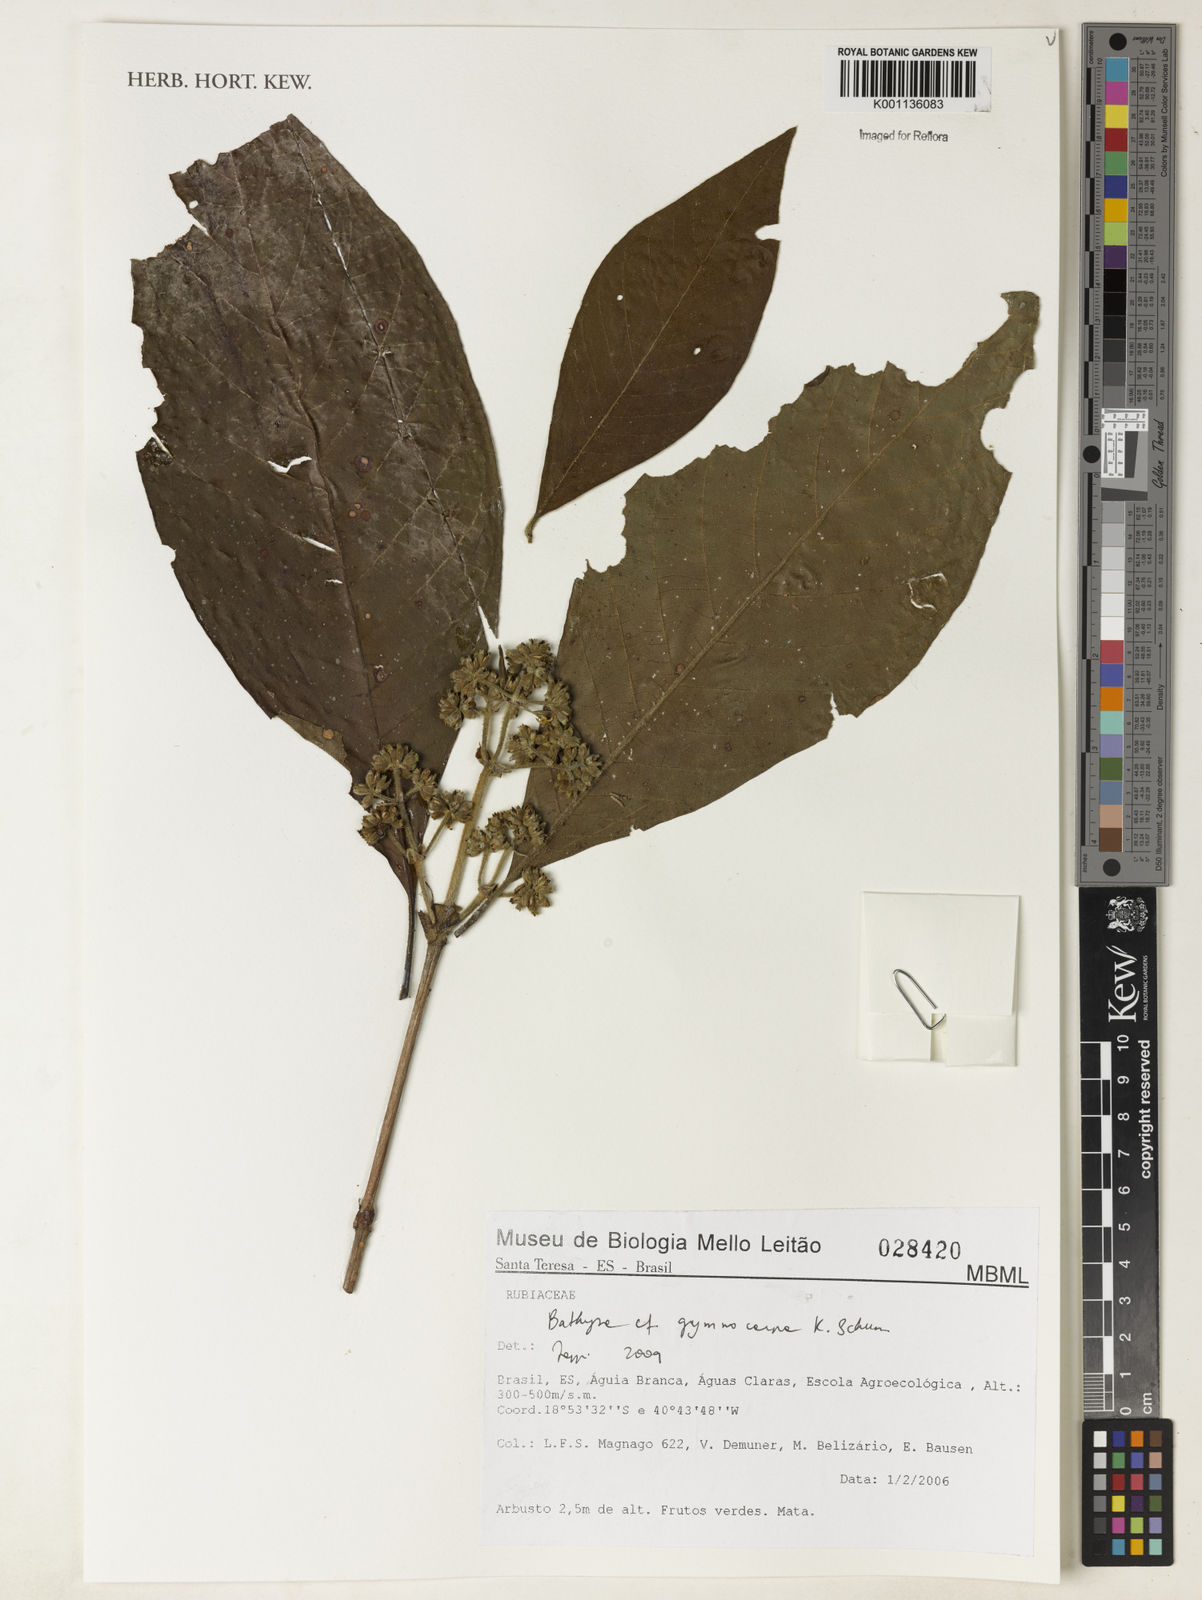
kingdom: Plantae
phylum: Tracheophyta
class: Magnoliopsida
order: Gentianales
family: Rubiaceae
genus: Bathysa
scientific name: Bathysa gymnocarpa
